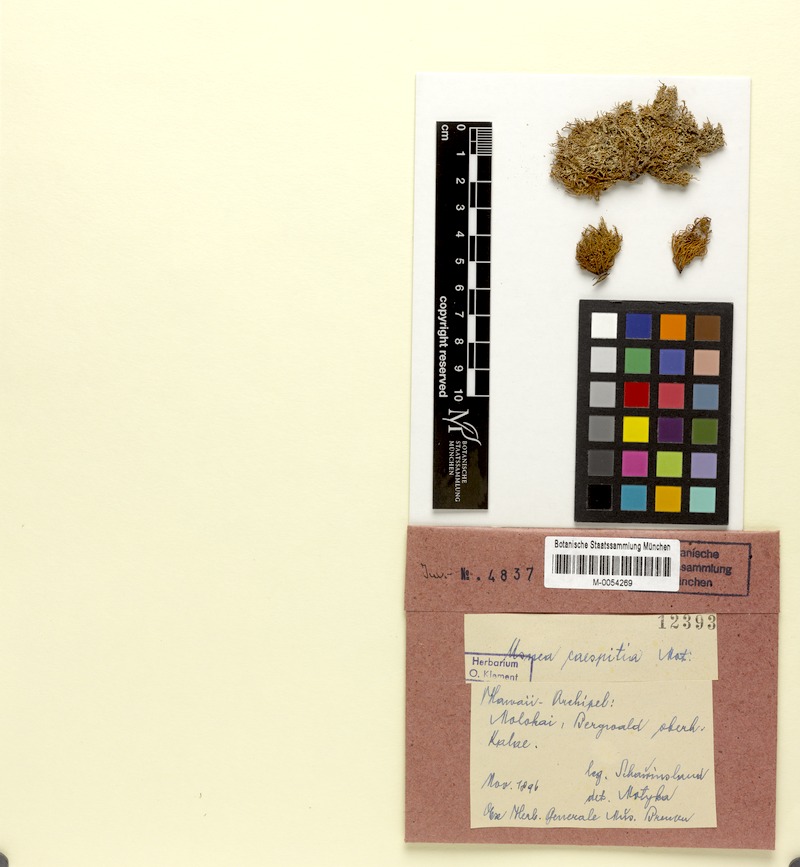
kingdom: Fungi
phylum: Ascomycota
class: Lecanoromycetes
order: Lecanorales
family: Parmeliaceae
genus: Usnea
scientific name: Usnea caespitia
